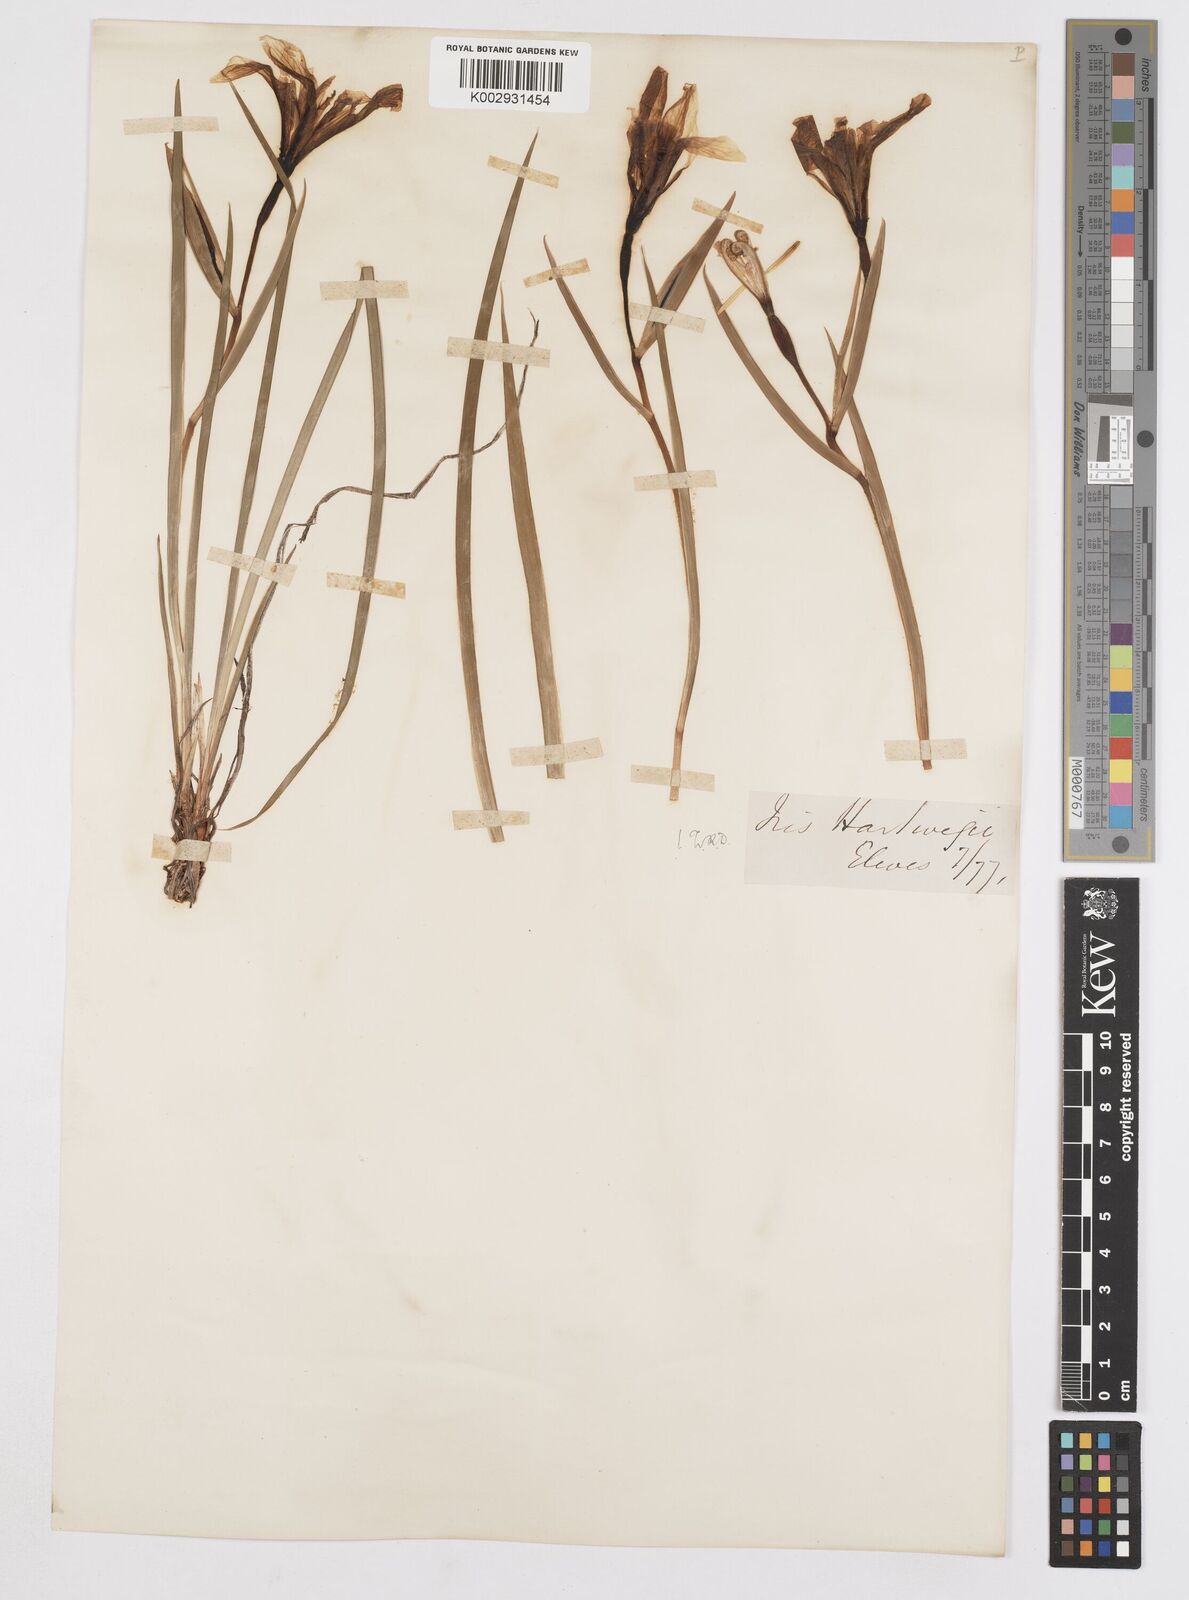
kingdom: Plantae
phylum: Tracheophyta
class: Liliopsida
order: Asparagales
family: Iridaceae
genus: Iris
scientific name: Iris hartwegii
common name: Sierra iris
